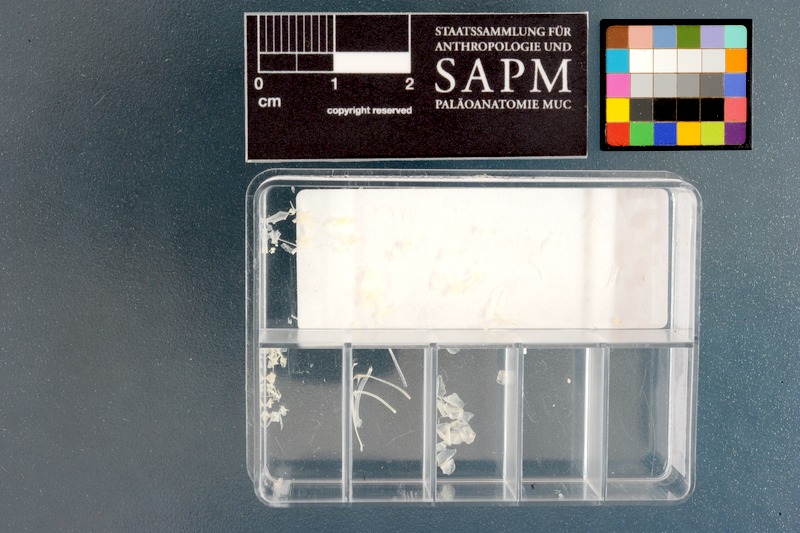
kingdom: Animalia
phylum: Chordata
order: Gobiesociformes
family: Gobiesocidae
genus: Eckloniaichthys
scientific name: Eckloniaichthys scylliorhiniceps
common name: Weedsucker
